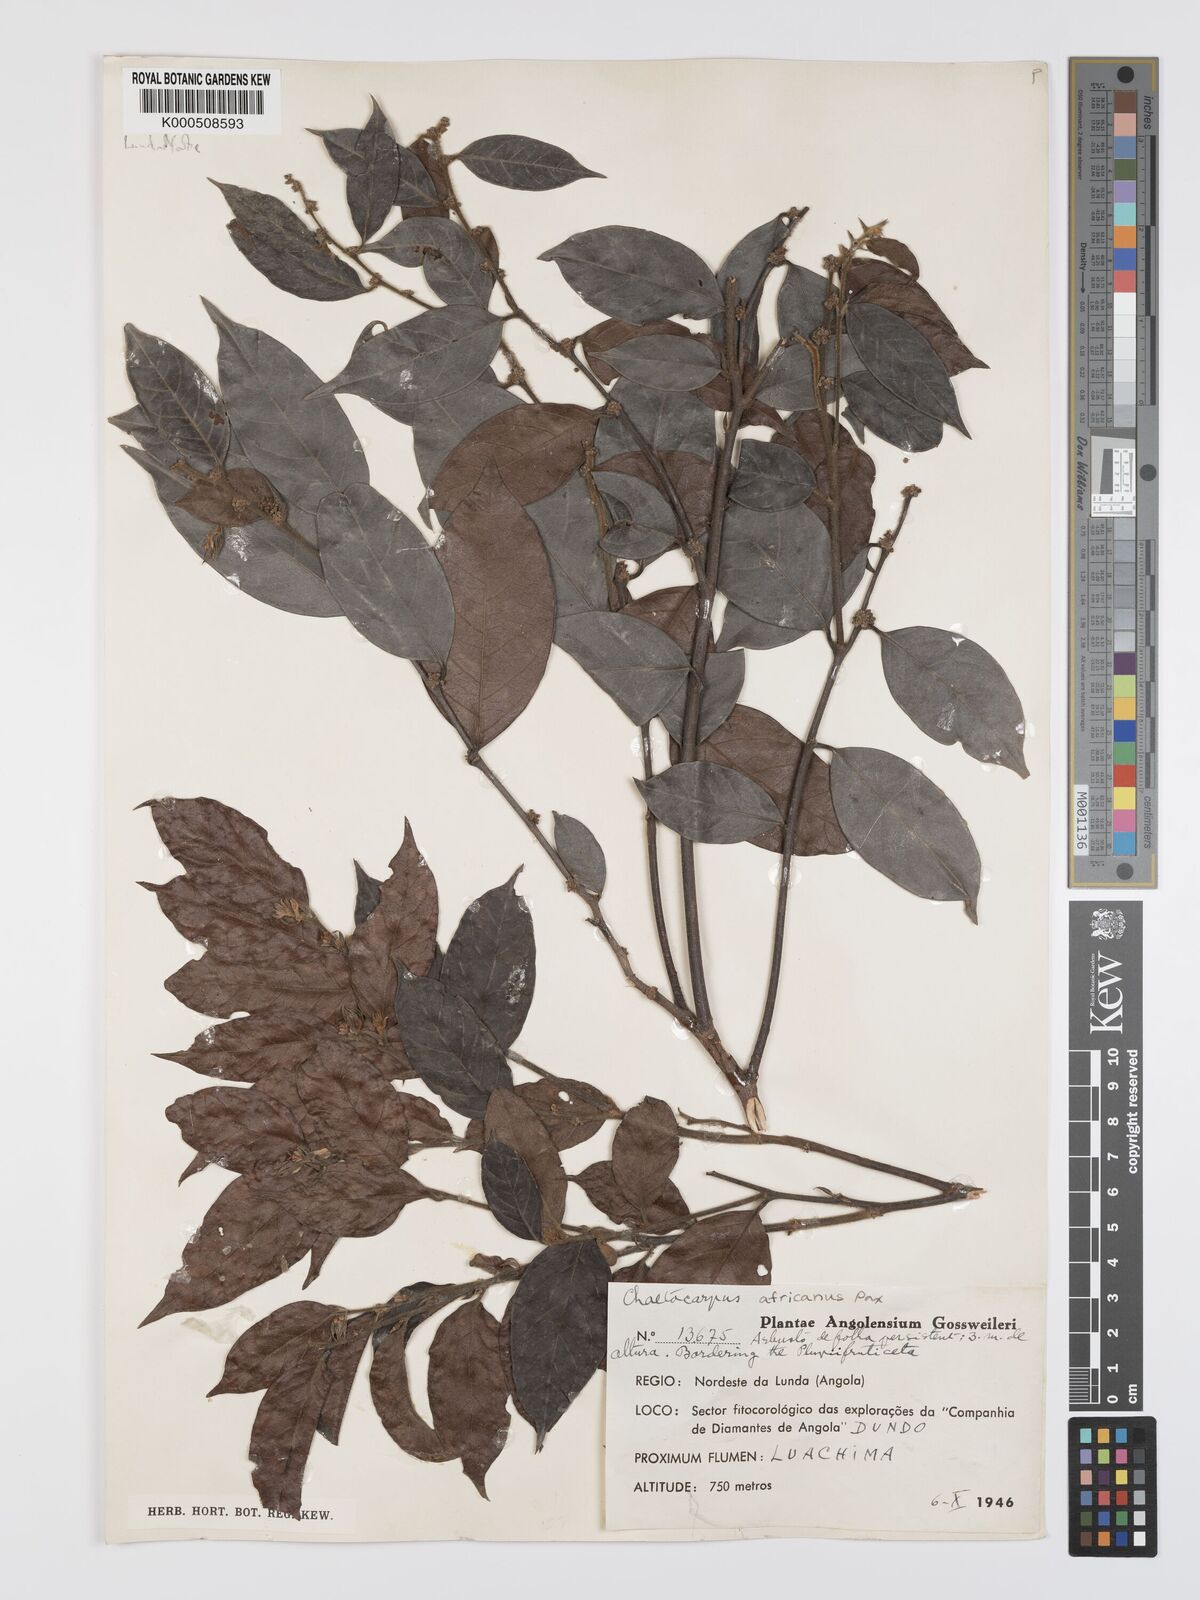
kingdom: Plantae
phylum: Tracheophyta
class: Magnoliopsida
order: Malpighiales
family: Peraceae
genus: Chaetocarpus
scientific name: Chaetocarpus africanus
